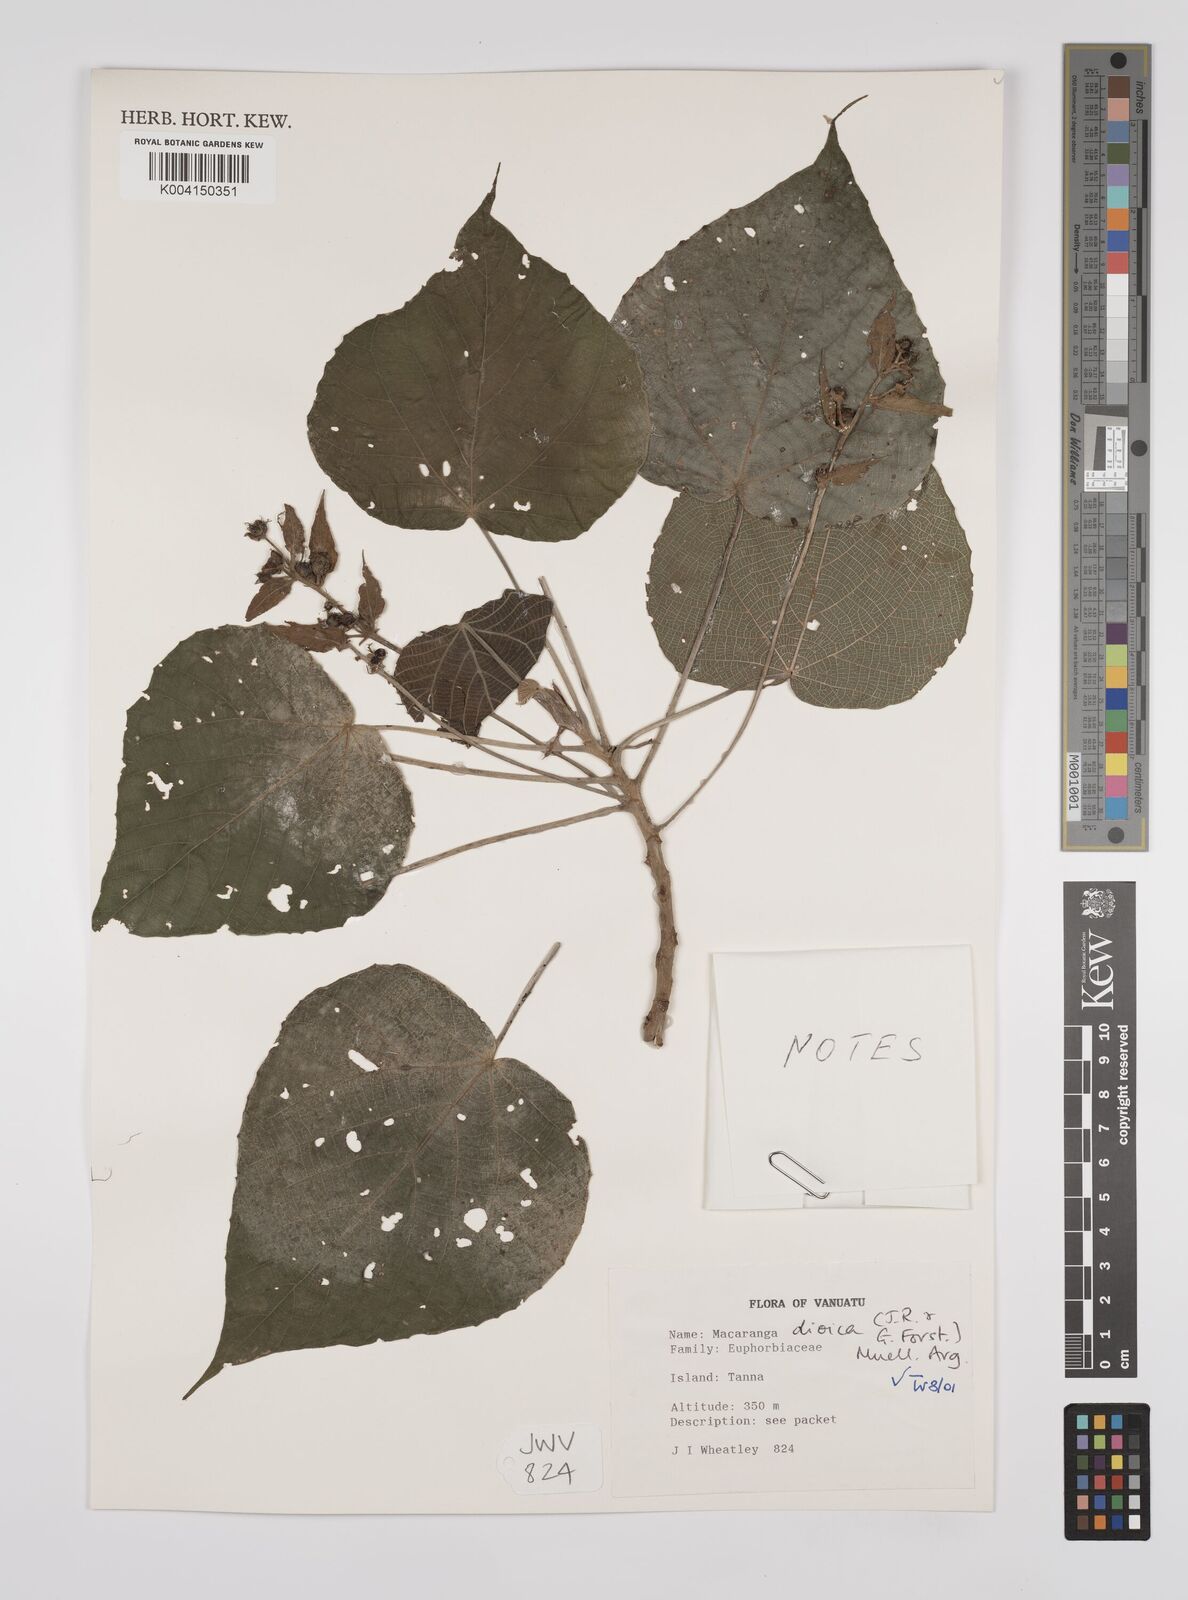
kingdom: Plantae
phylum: Tracheophyta
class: Magnoliopsida
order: Malpighiales
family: Euphorbiaceae
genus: Macaranga
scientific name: Macaranga dioica
